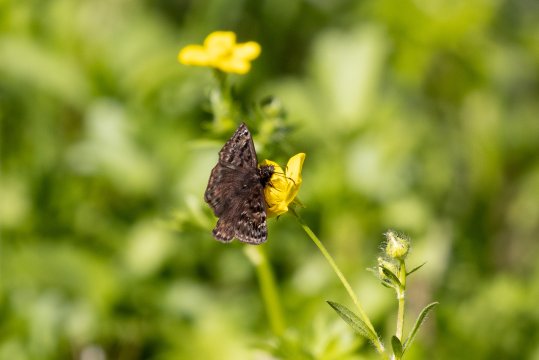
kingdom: Animalia
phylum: Arthropoda
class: Insecta
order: Lepidoptera
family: Hesperiidae
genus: Gesta
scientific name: Gesta
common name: Juvenal's Duskywing
